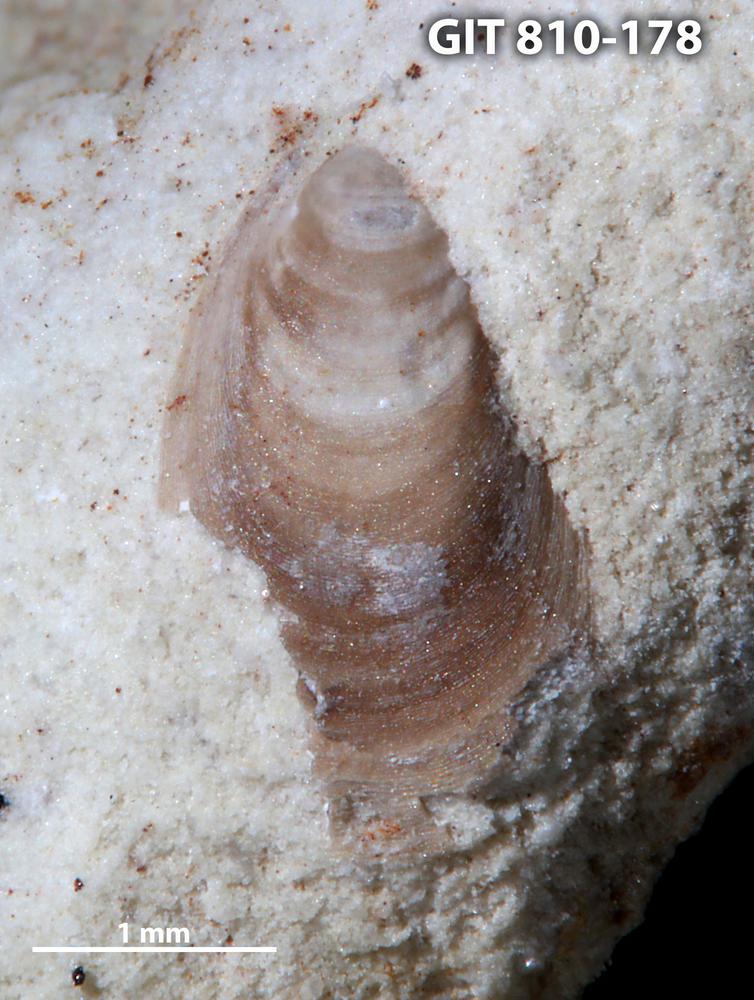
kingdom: Animalia
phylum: Brachiopoda
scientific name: Brachiopoda
